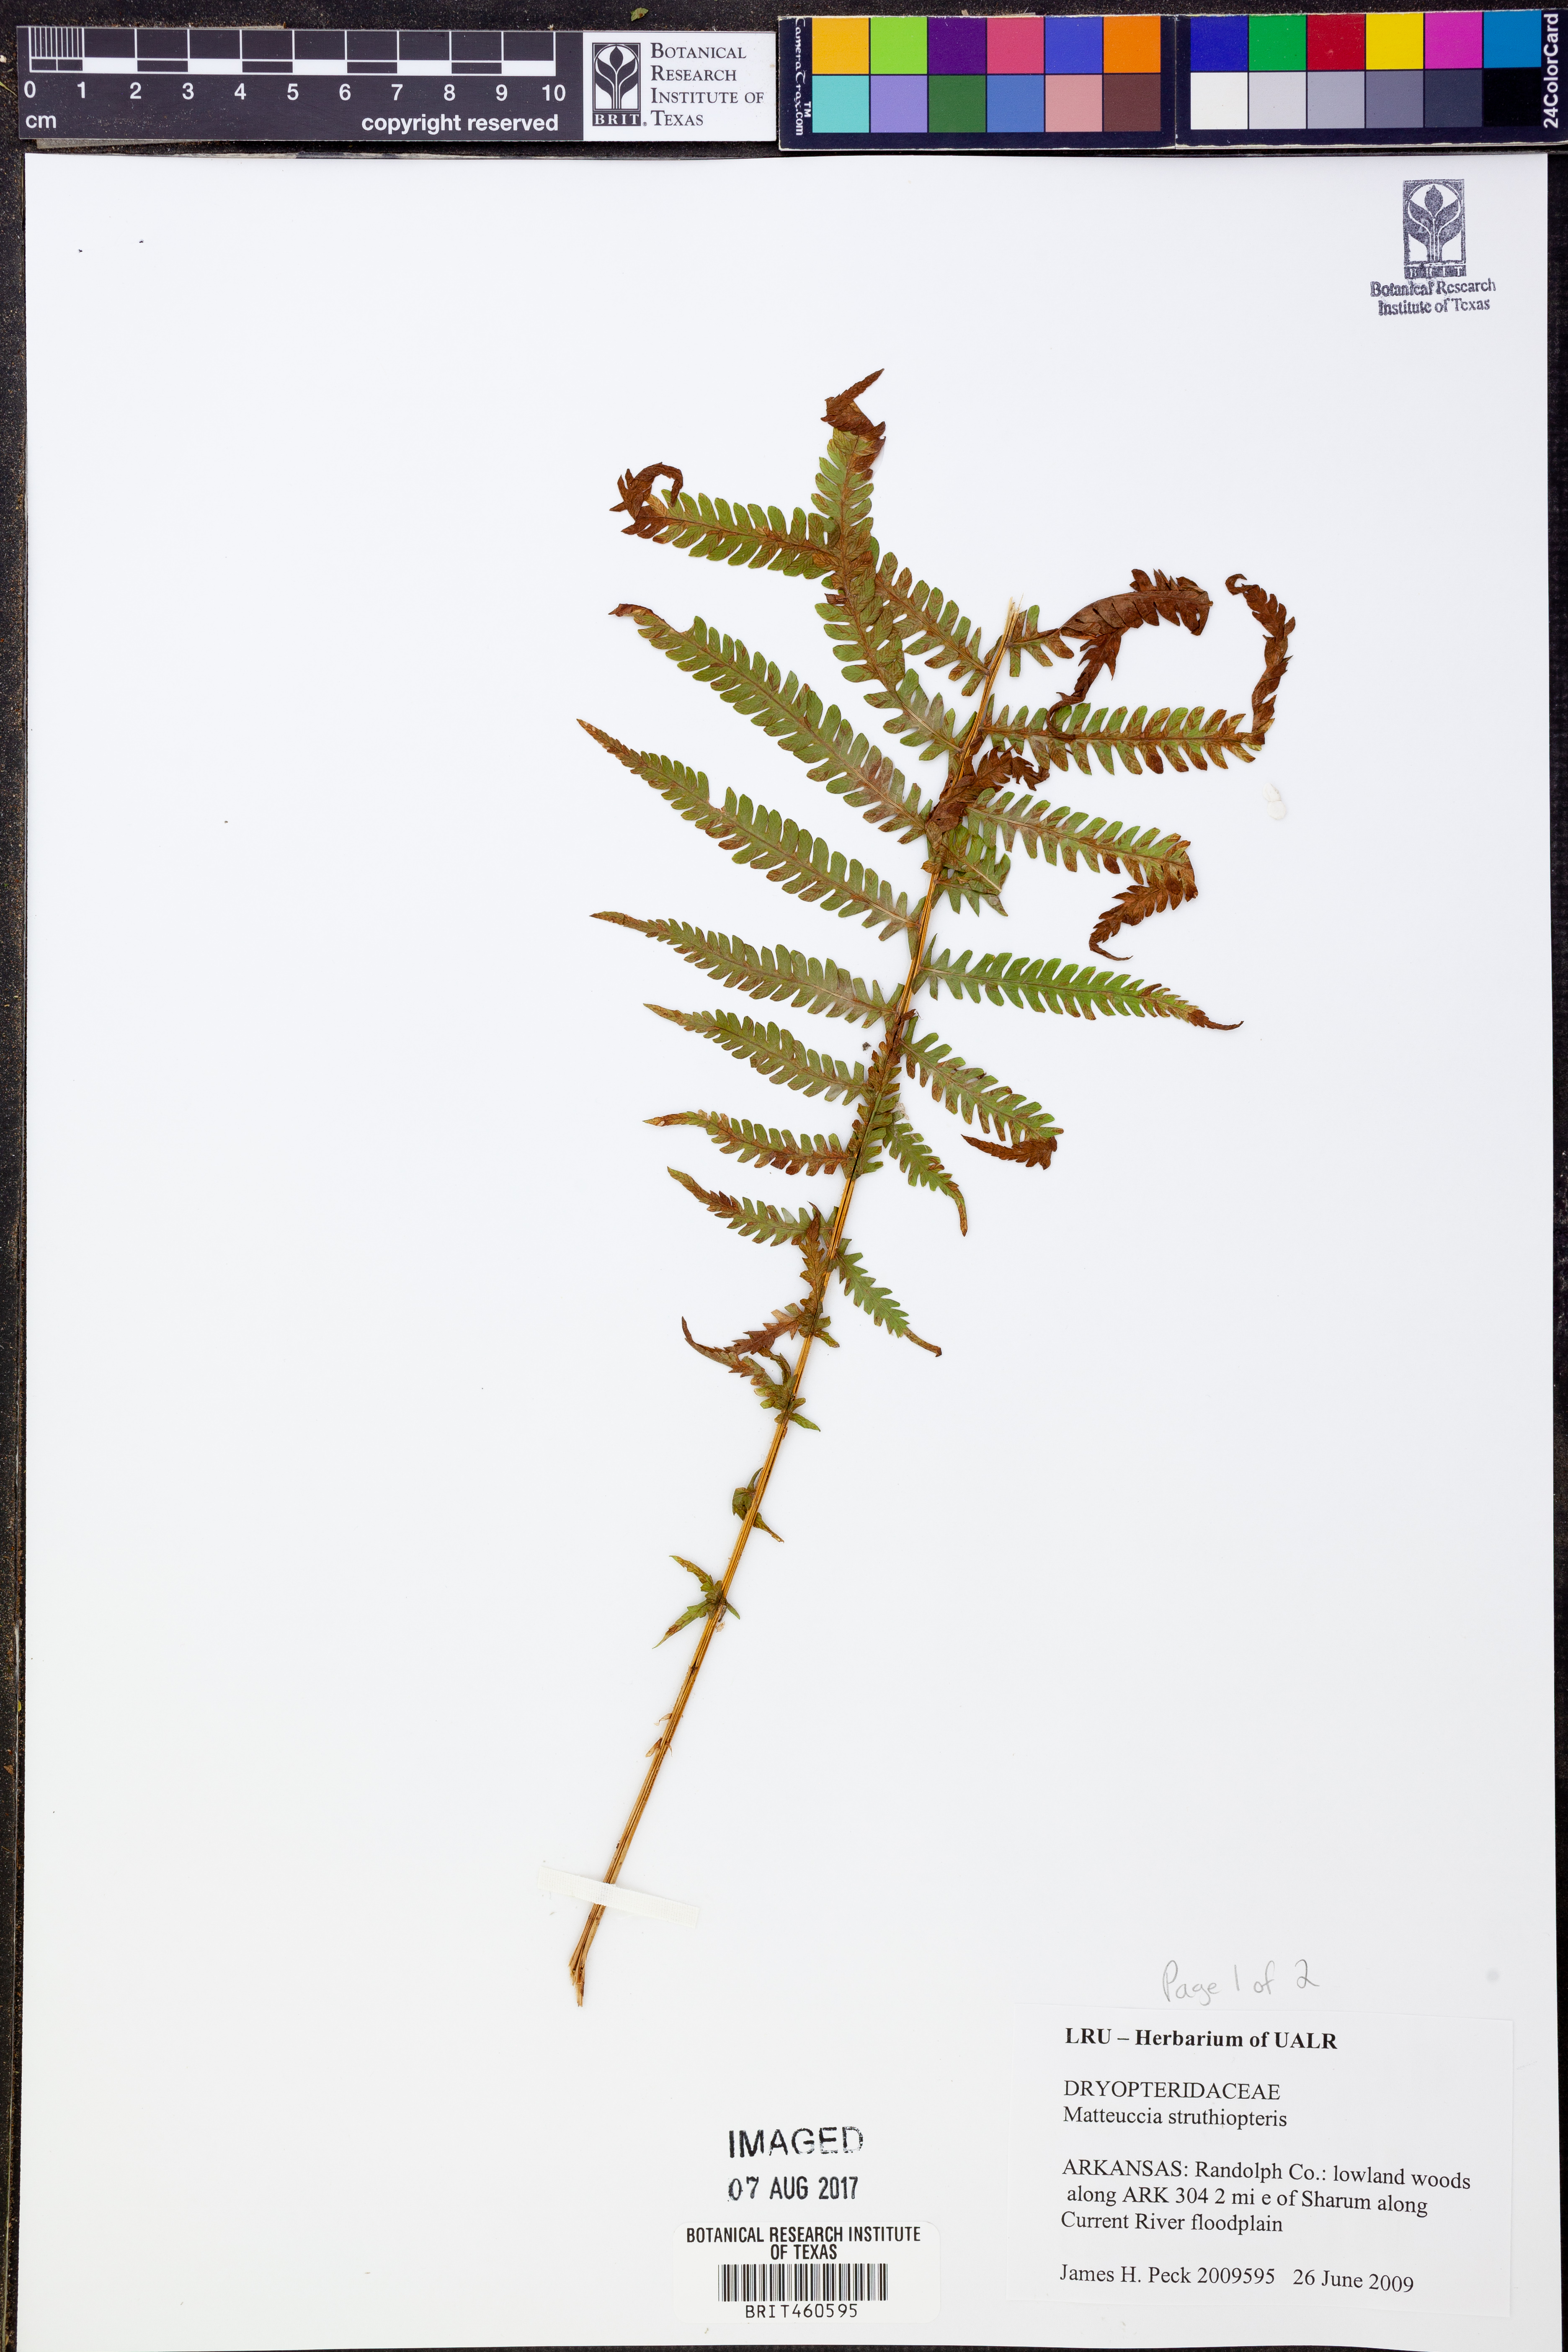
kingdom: Plantae
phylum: Tracheophyta
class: Polypodiopsida
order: Polypodiales
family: Onocleaceae
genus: Matteuccia
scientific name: Matteuccia struthiopteris
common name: Ostrich fern
